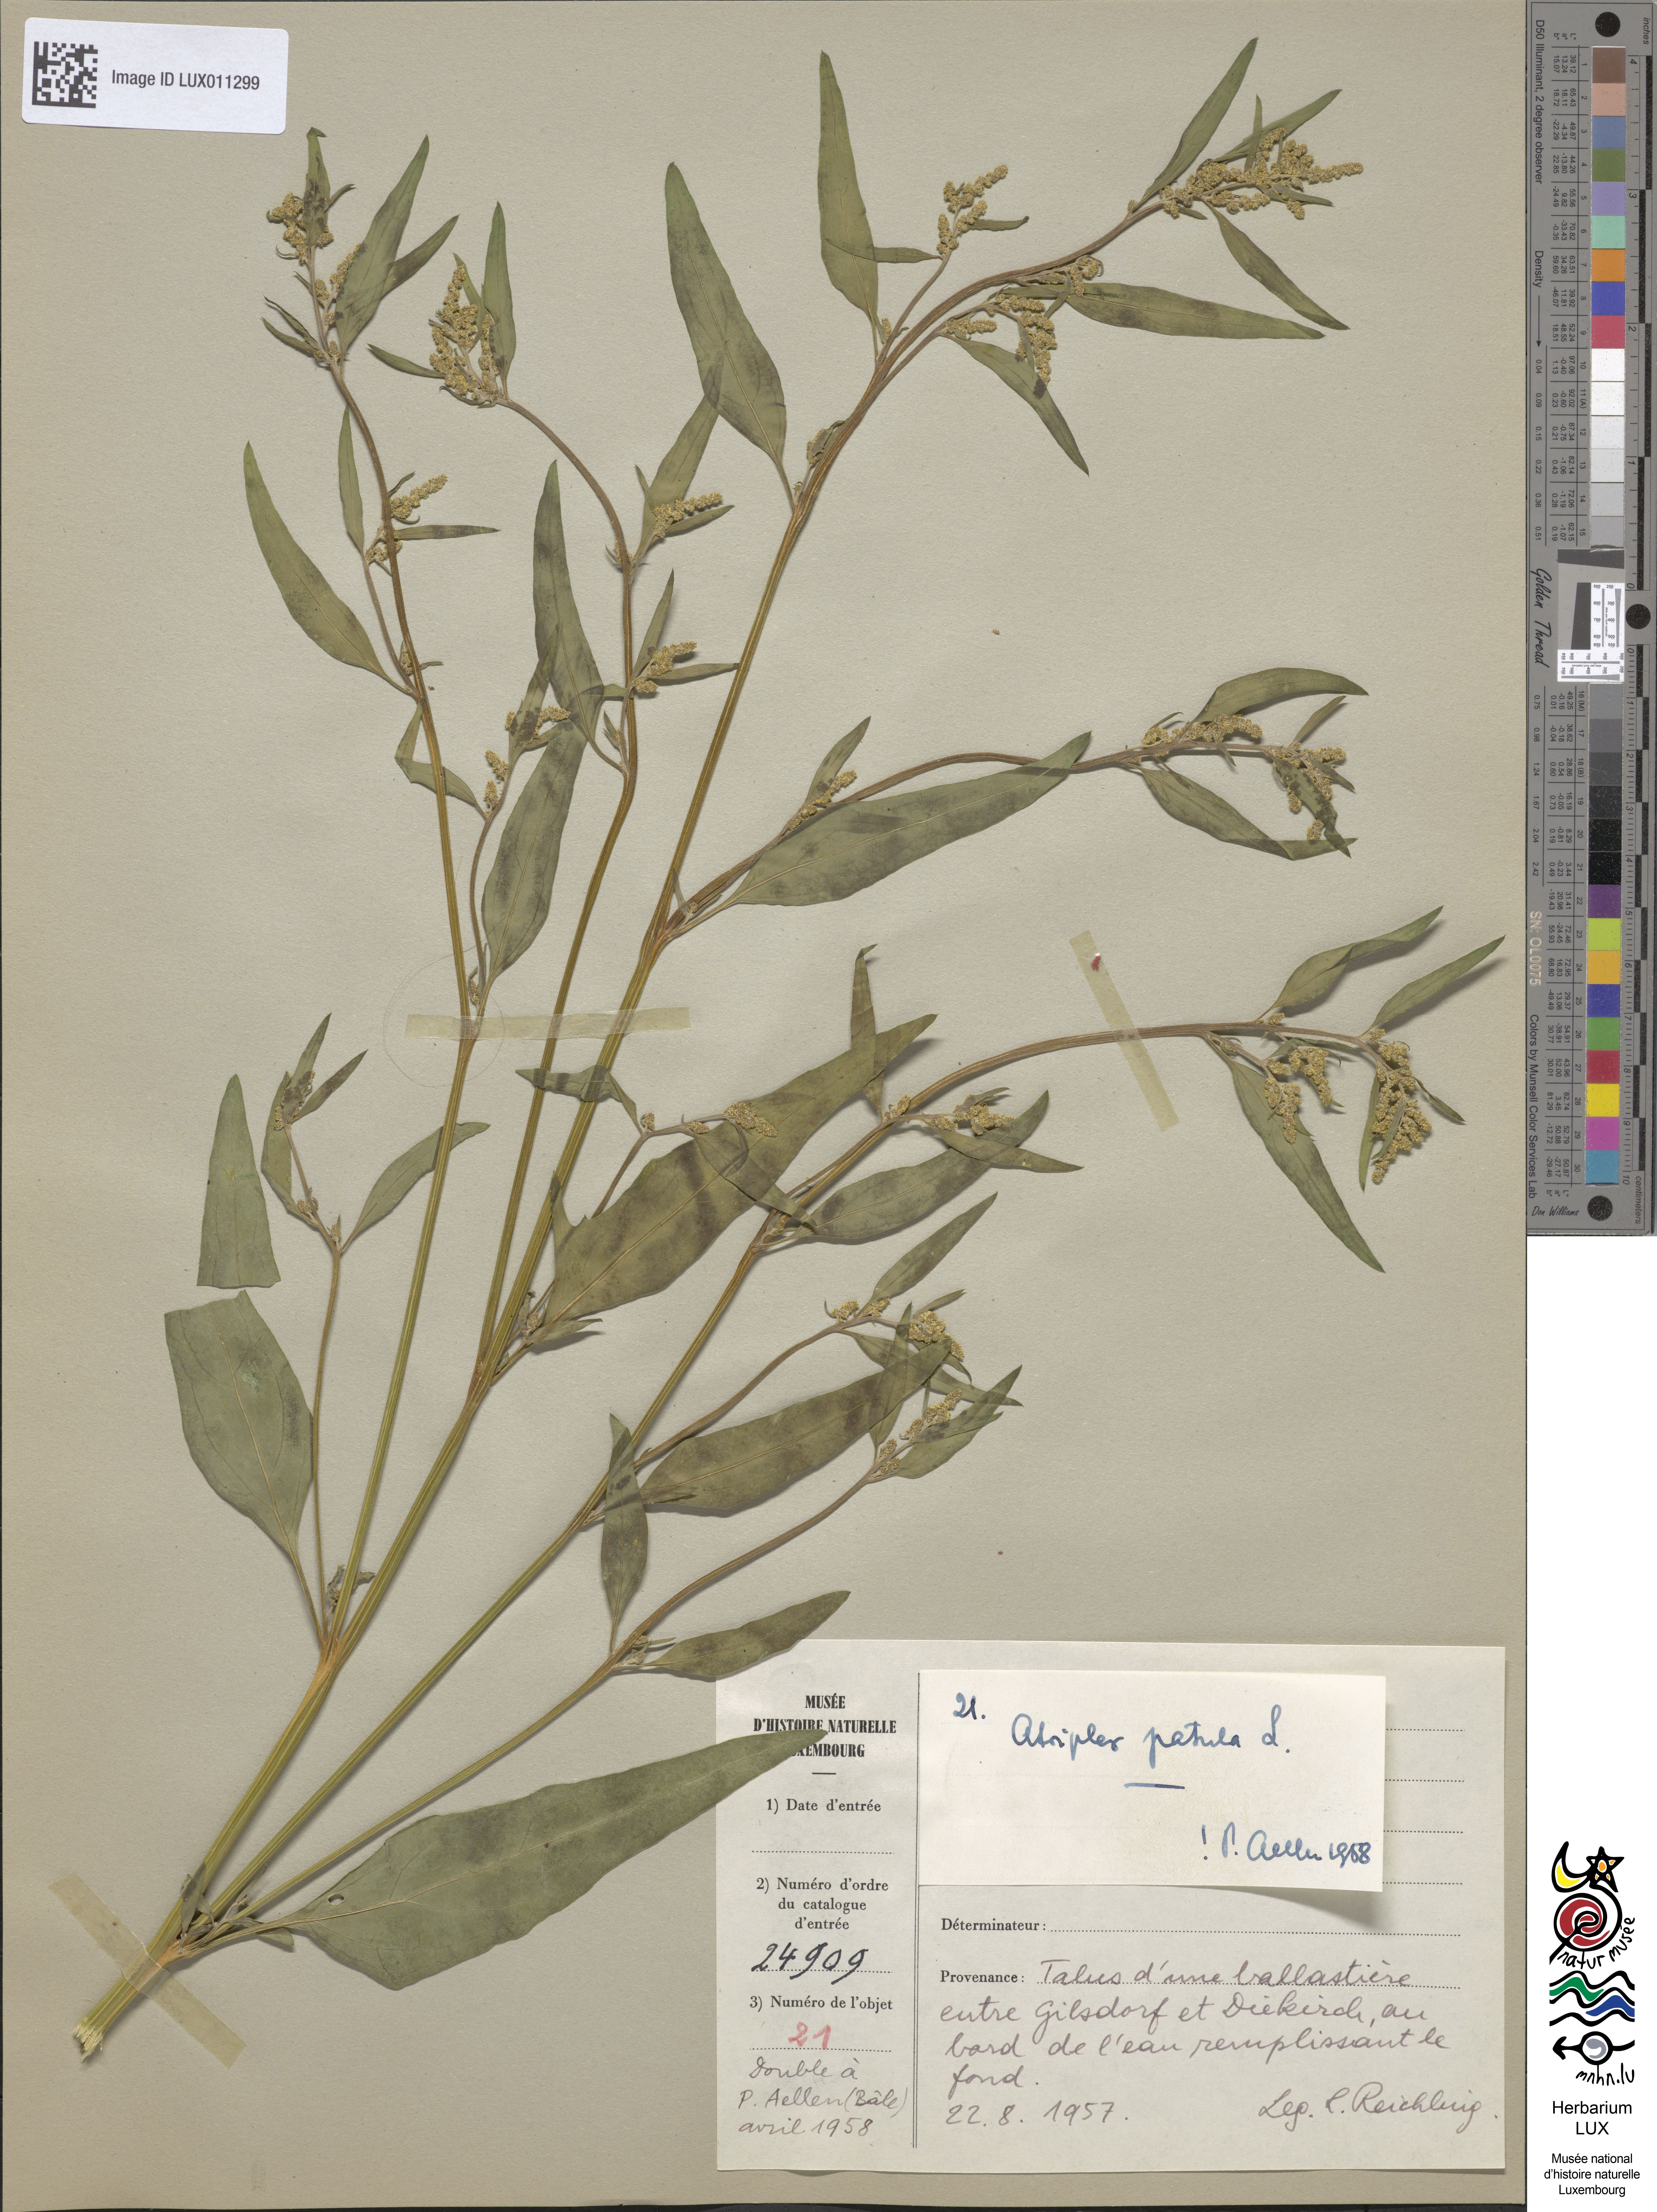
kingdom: Plantae
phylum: Tracheophyta
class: Magnoliopsida
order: Caryophyllales
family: Amaranthaceae
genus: Atriplex
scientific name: Atriplex patula
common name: Common orache
